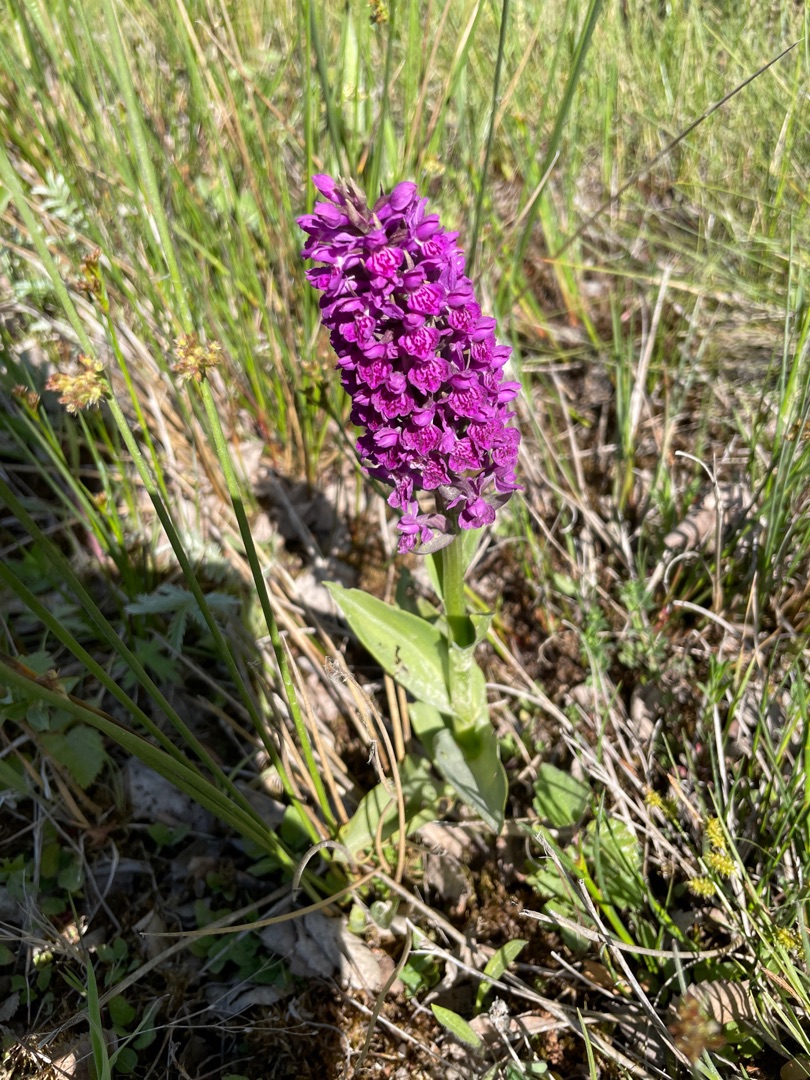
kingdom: Plantae
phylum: Tracheophyta
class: Liliopsida
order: Asparagales
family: Orchidaceae
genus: Dactylorhiza
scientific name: Dactylorhiza majalis
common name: Purpur-gøgeurt
